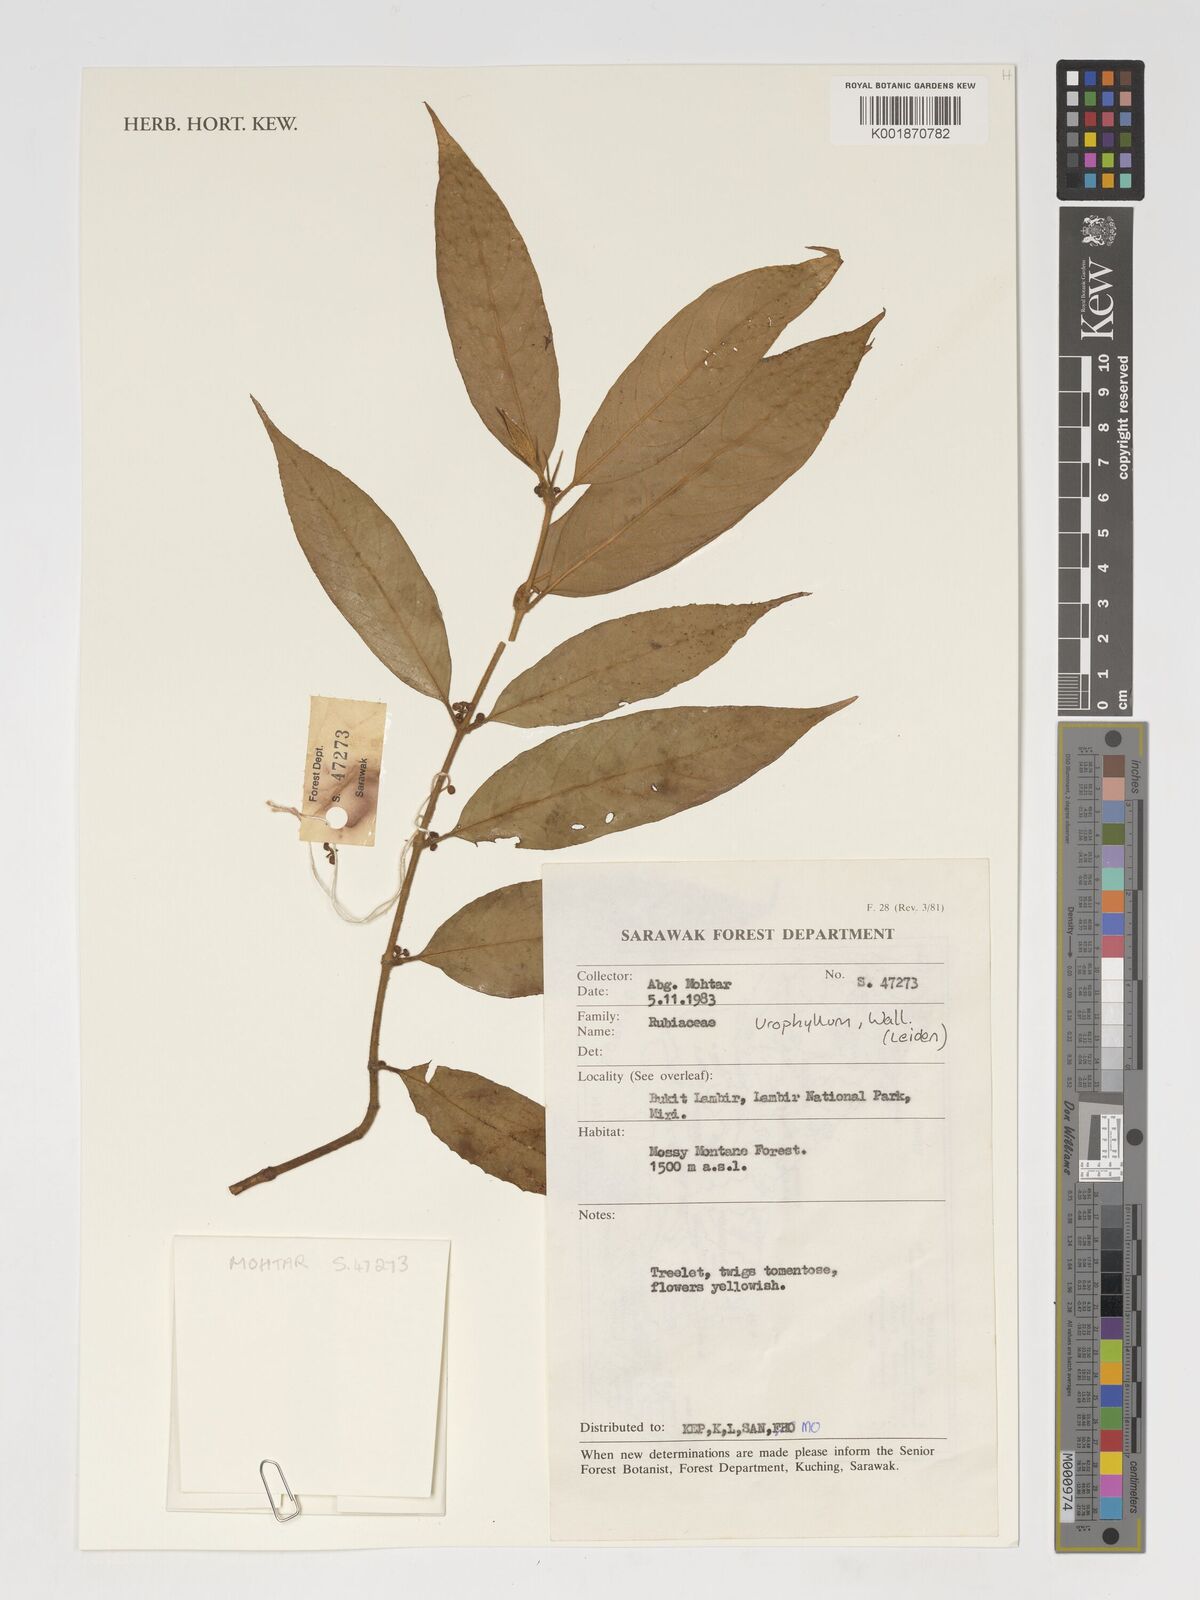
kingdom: Plantae
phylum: Tracheophyta
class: Magnoliopsida
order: Gentianales
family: Rubiaceae
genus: Urophyllum
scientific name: Urophyllum
